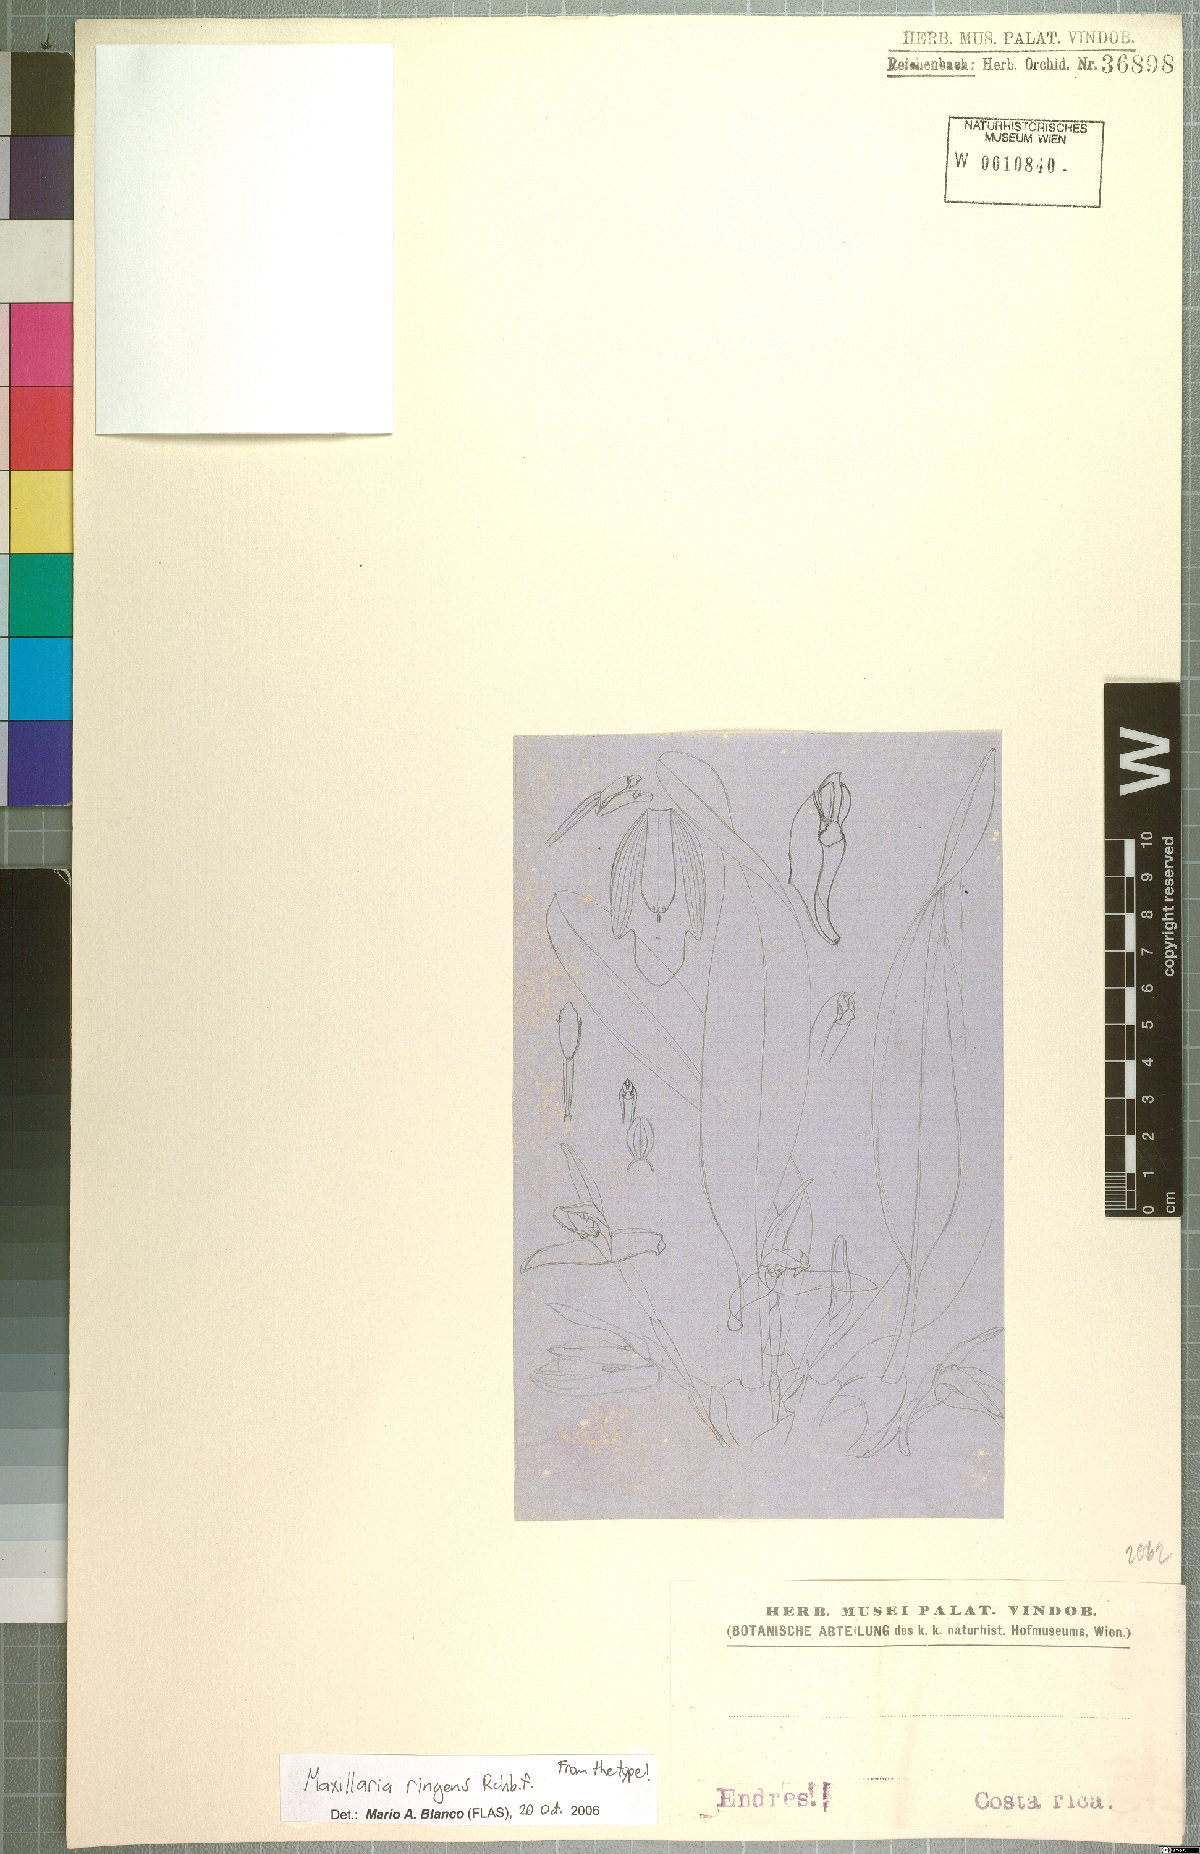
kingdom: Plantae
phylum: Tracheophyta
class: Liliopsida
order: Asparagales
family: Orchidaceae
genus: Maxillaria
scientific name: Maxillaria ringens
